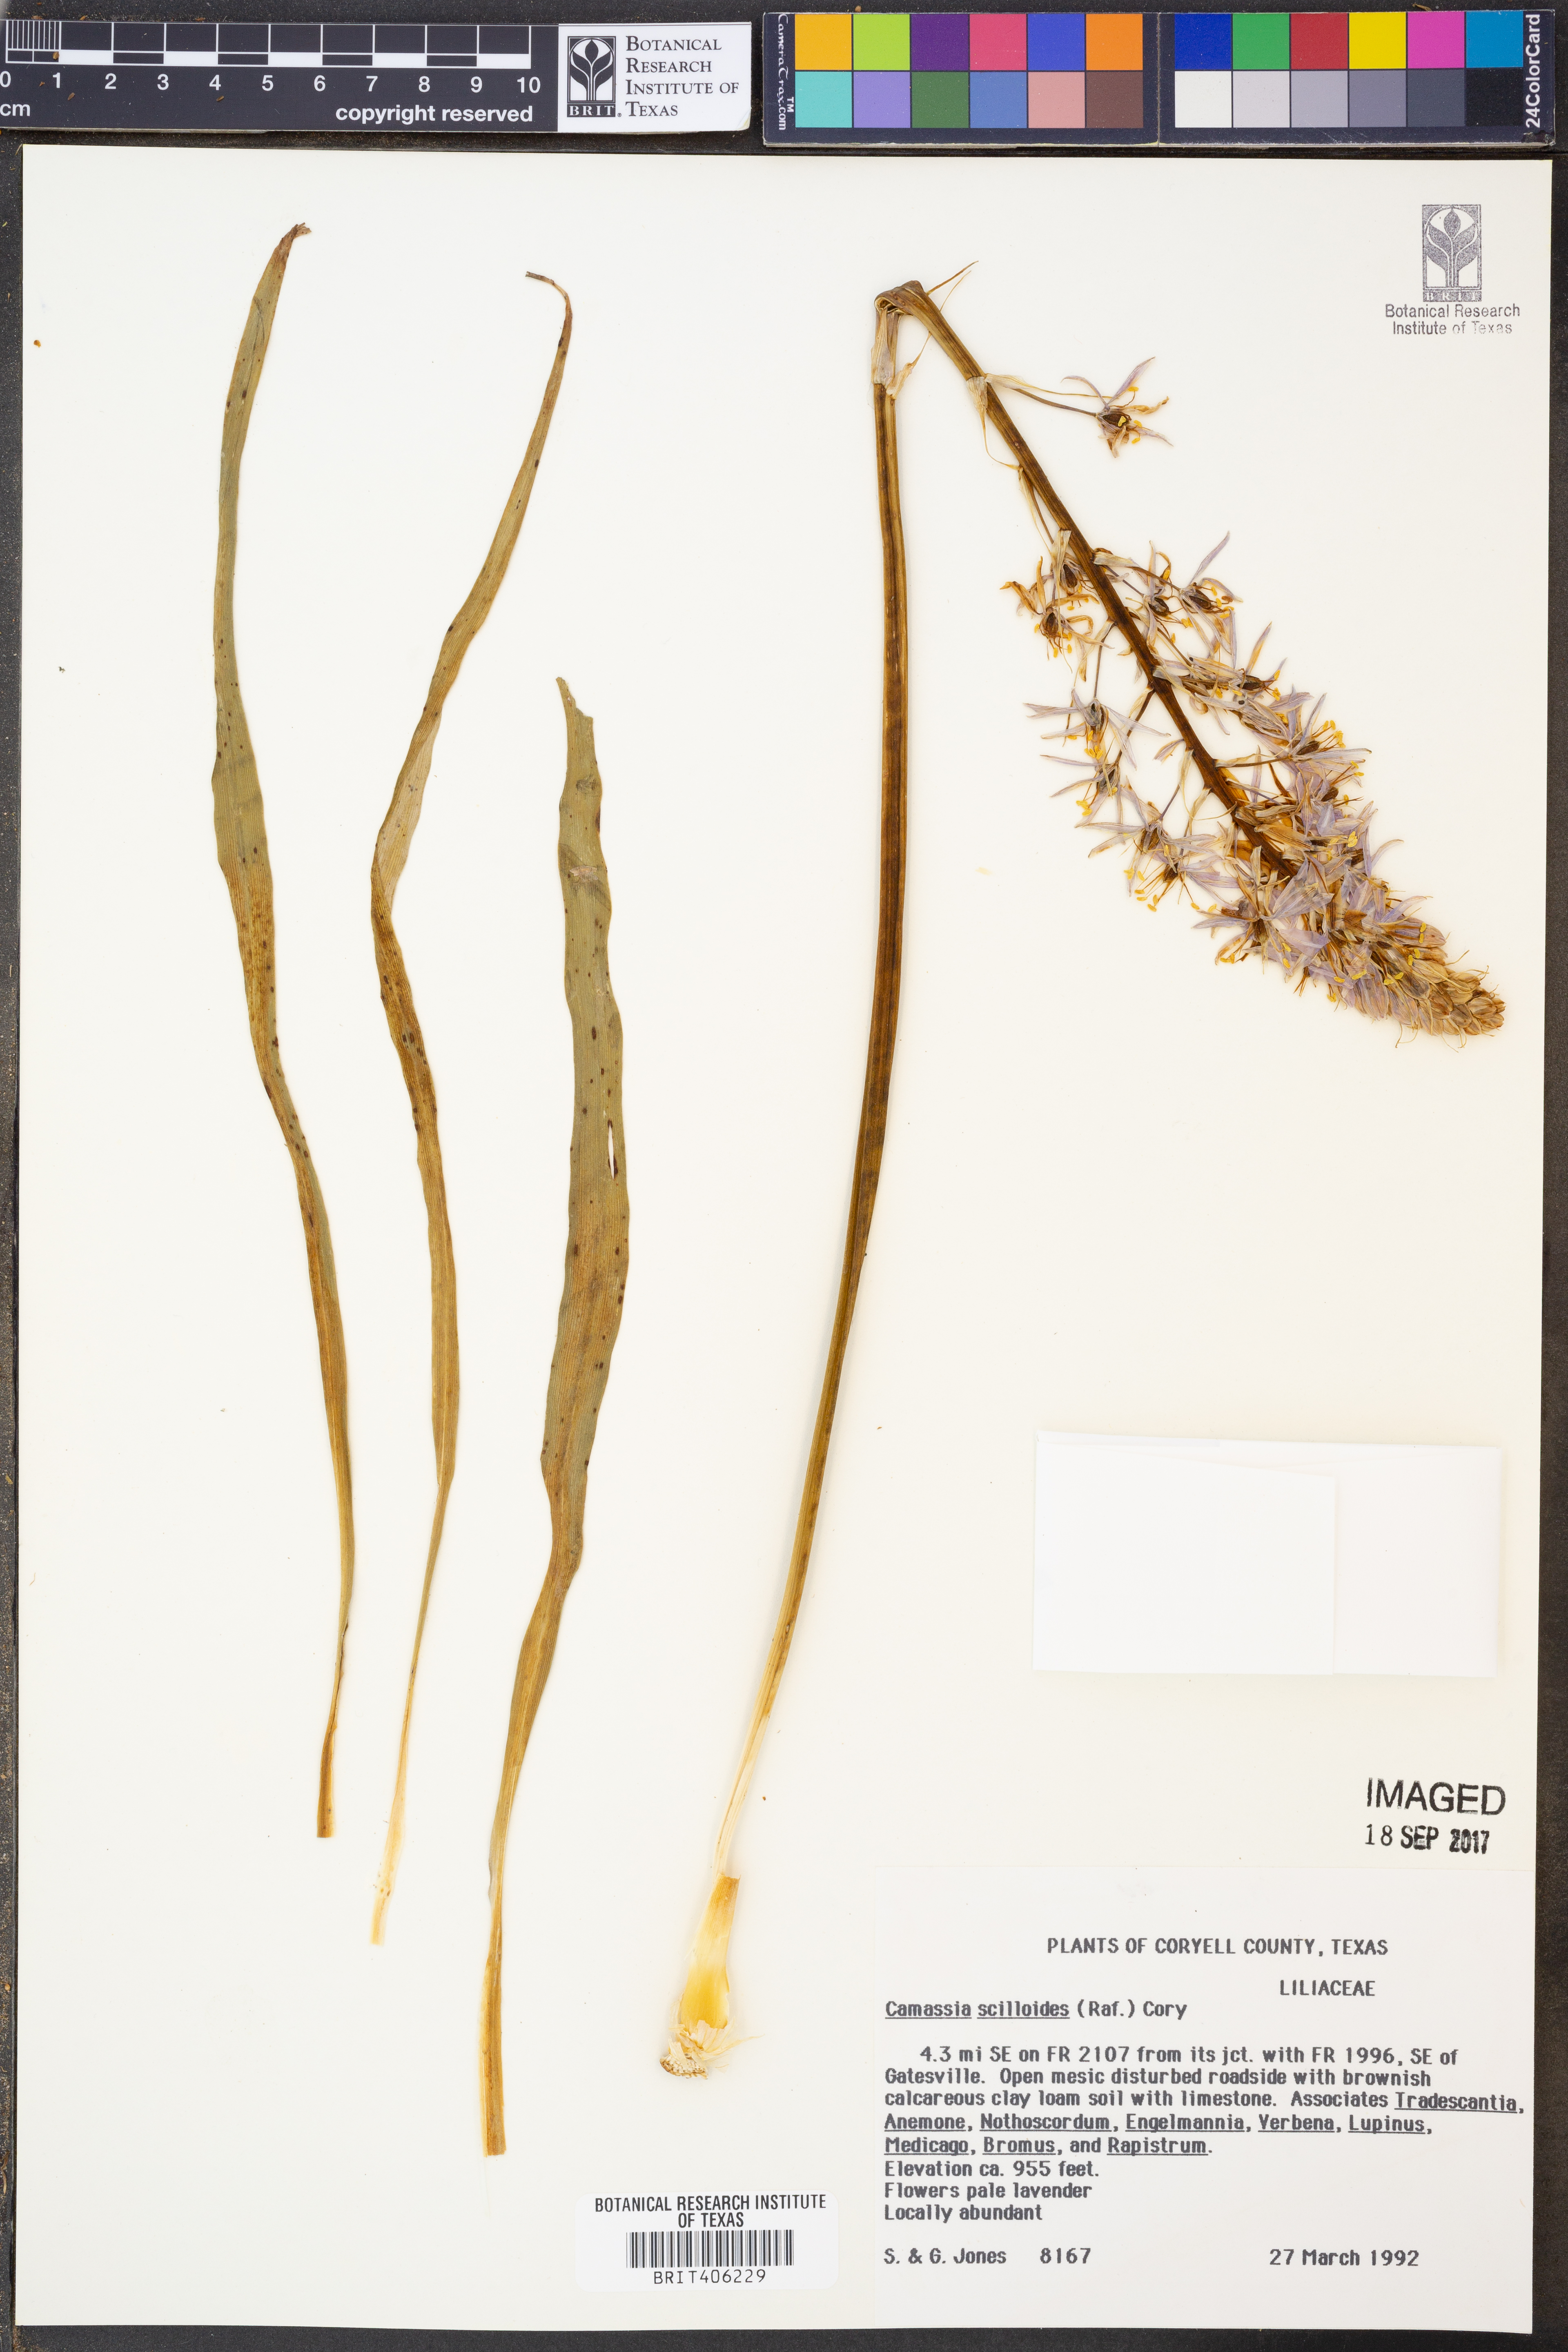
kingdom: Plantae
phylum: Tracheophyta
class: Liliopsida
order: Asparagales
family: Asparagaceae
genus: Camassia
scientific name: Camassia scilloides
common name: Wild hyacinth
